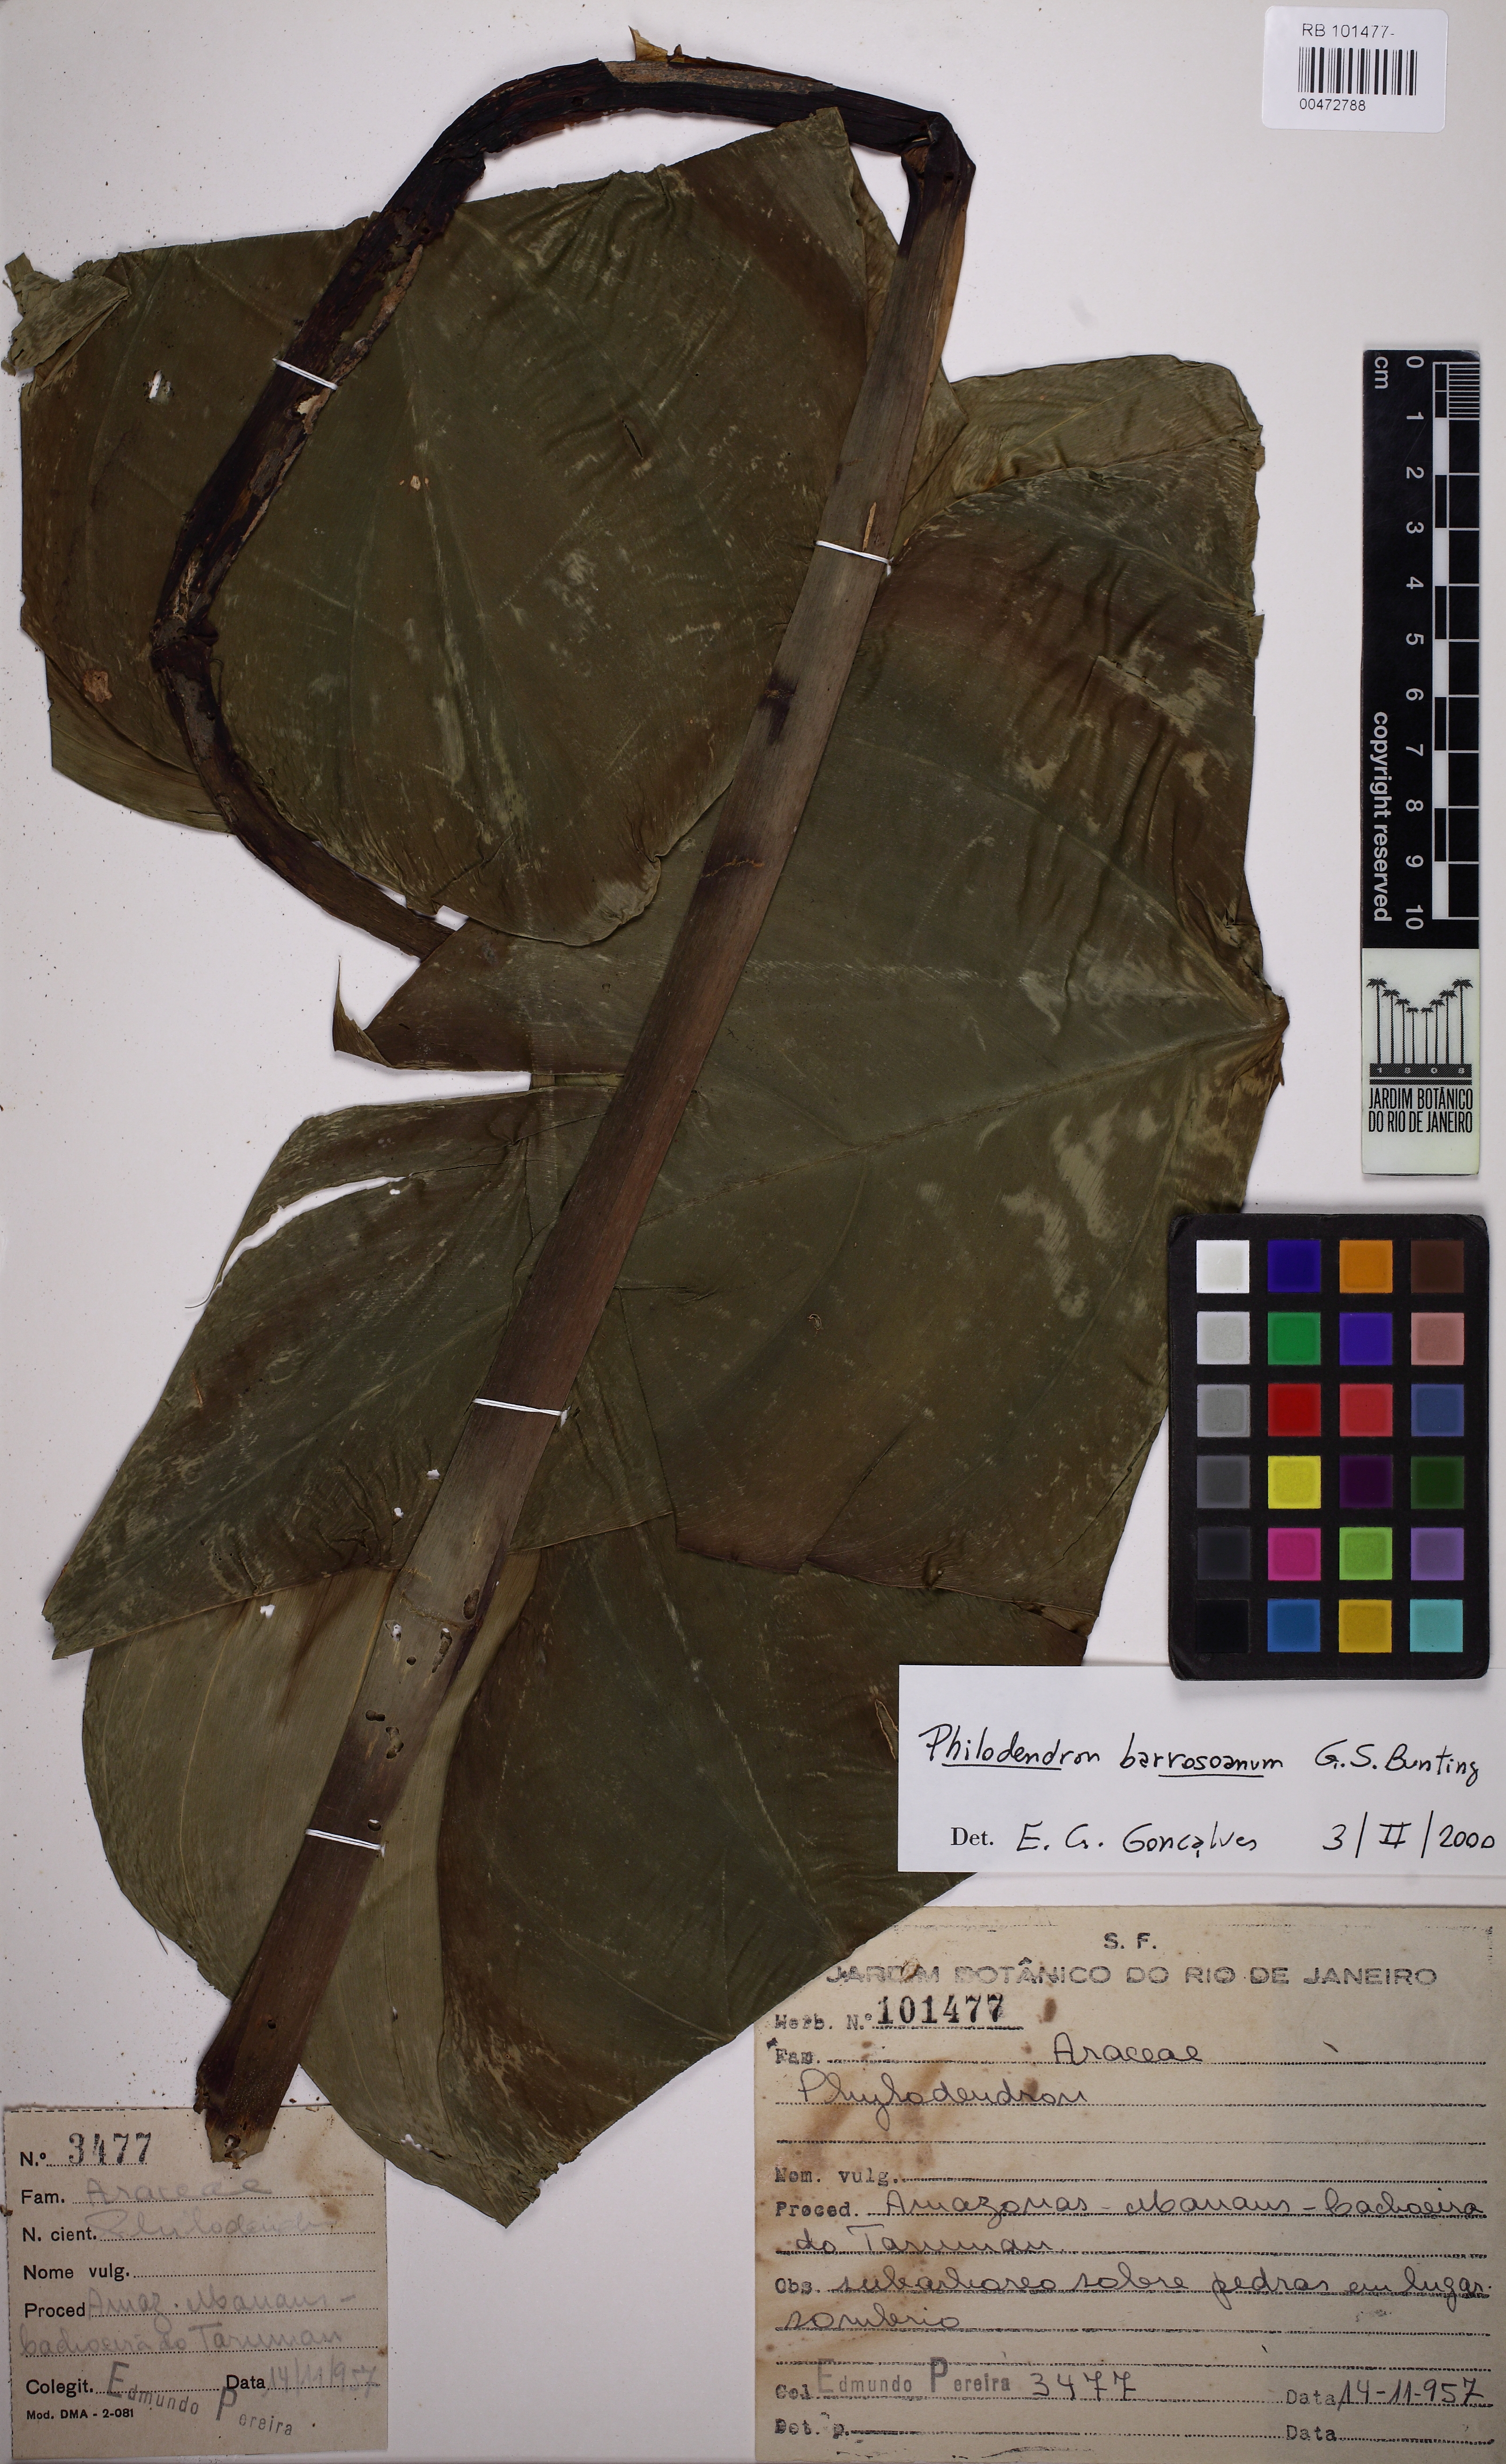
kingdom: Plantae
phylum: Tracheophyta
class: Liliopsida
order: Alismatales
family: Araceae
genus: Philodendron
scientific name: Philodendron barrosoanum
